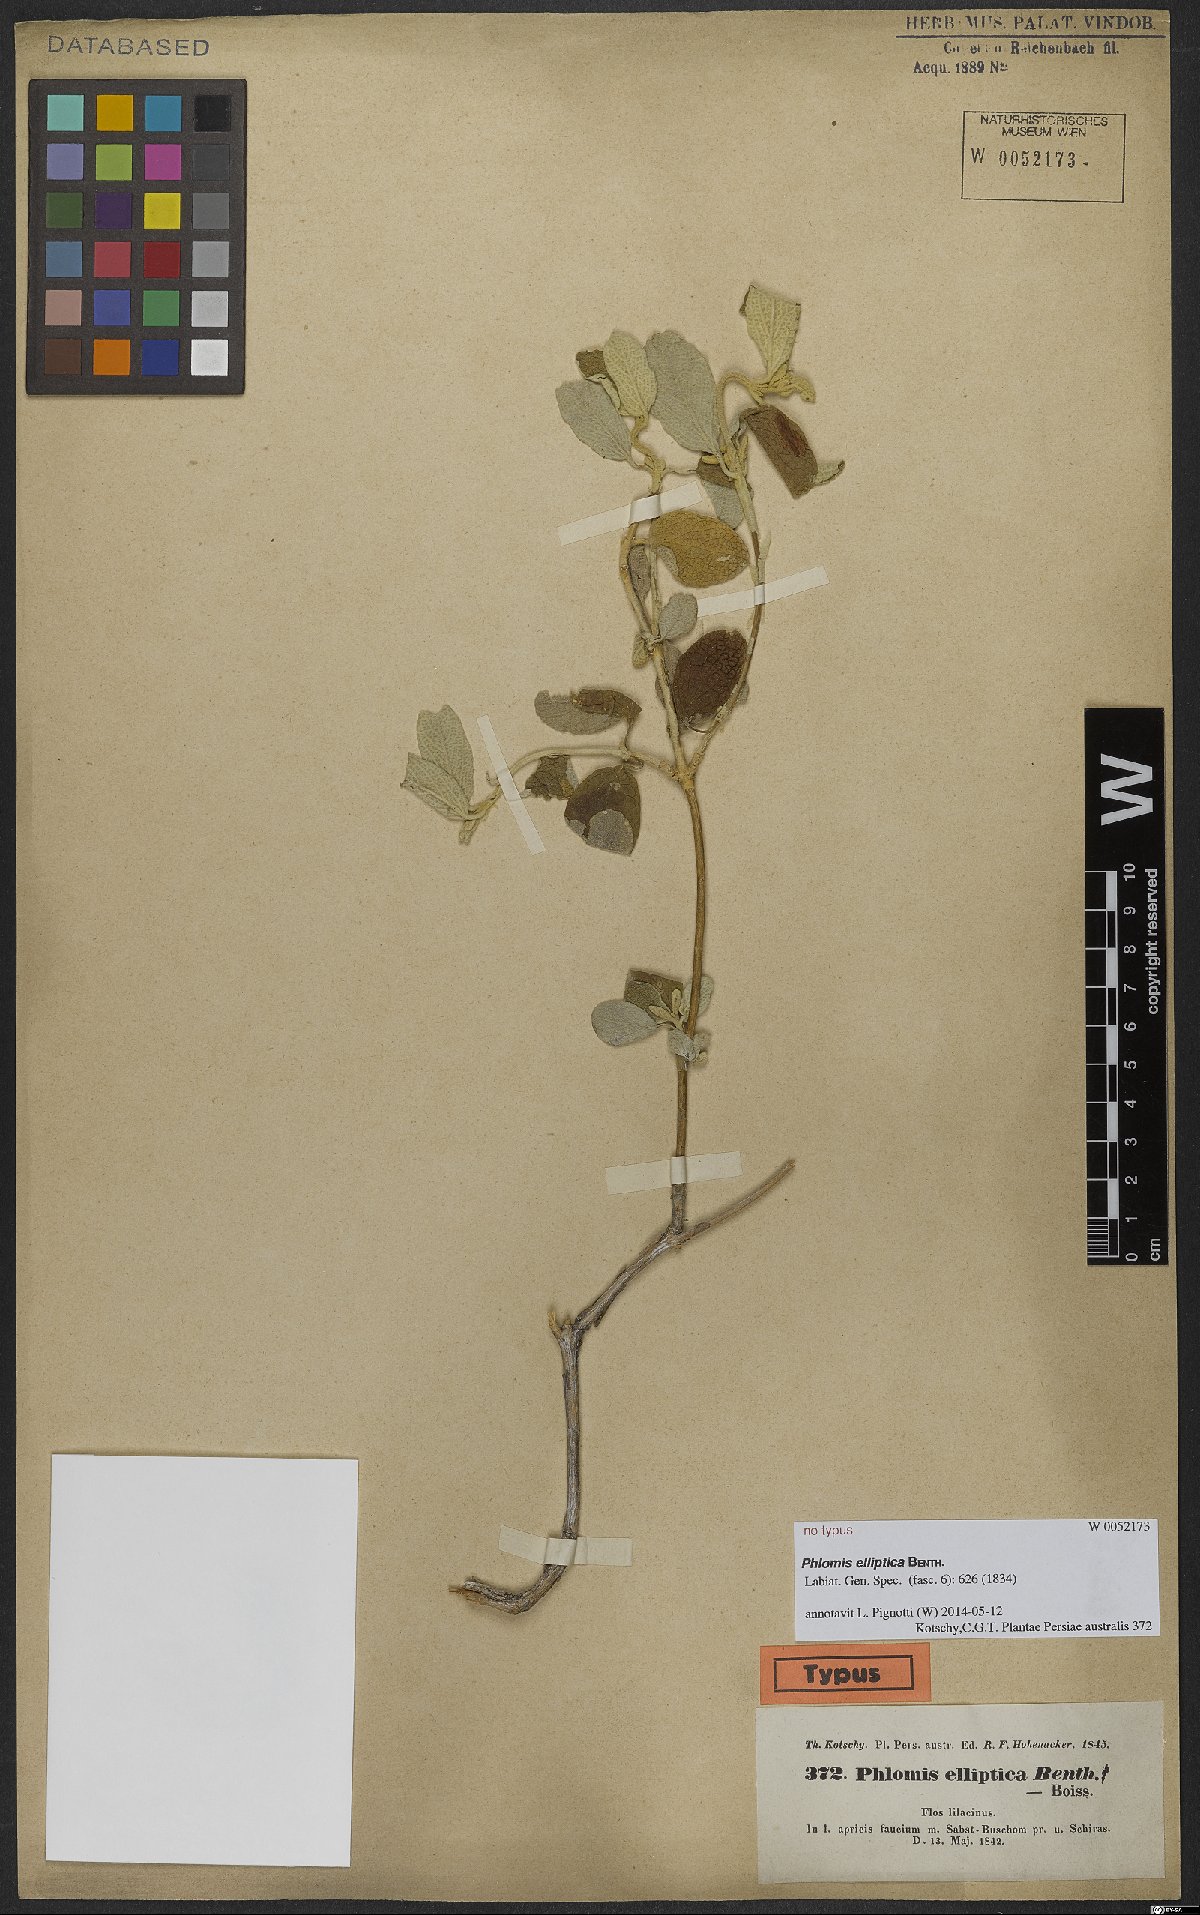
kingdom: Plantae
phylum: Tracheophyta
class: Magnoliopsida
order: Lamiales
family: Lamiaceae
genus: Phlomis
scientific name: Phlomis elliptica
